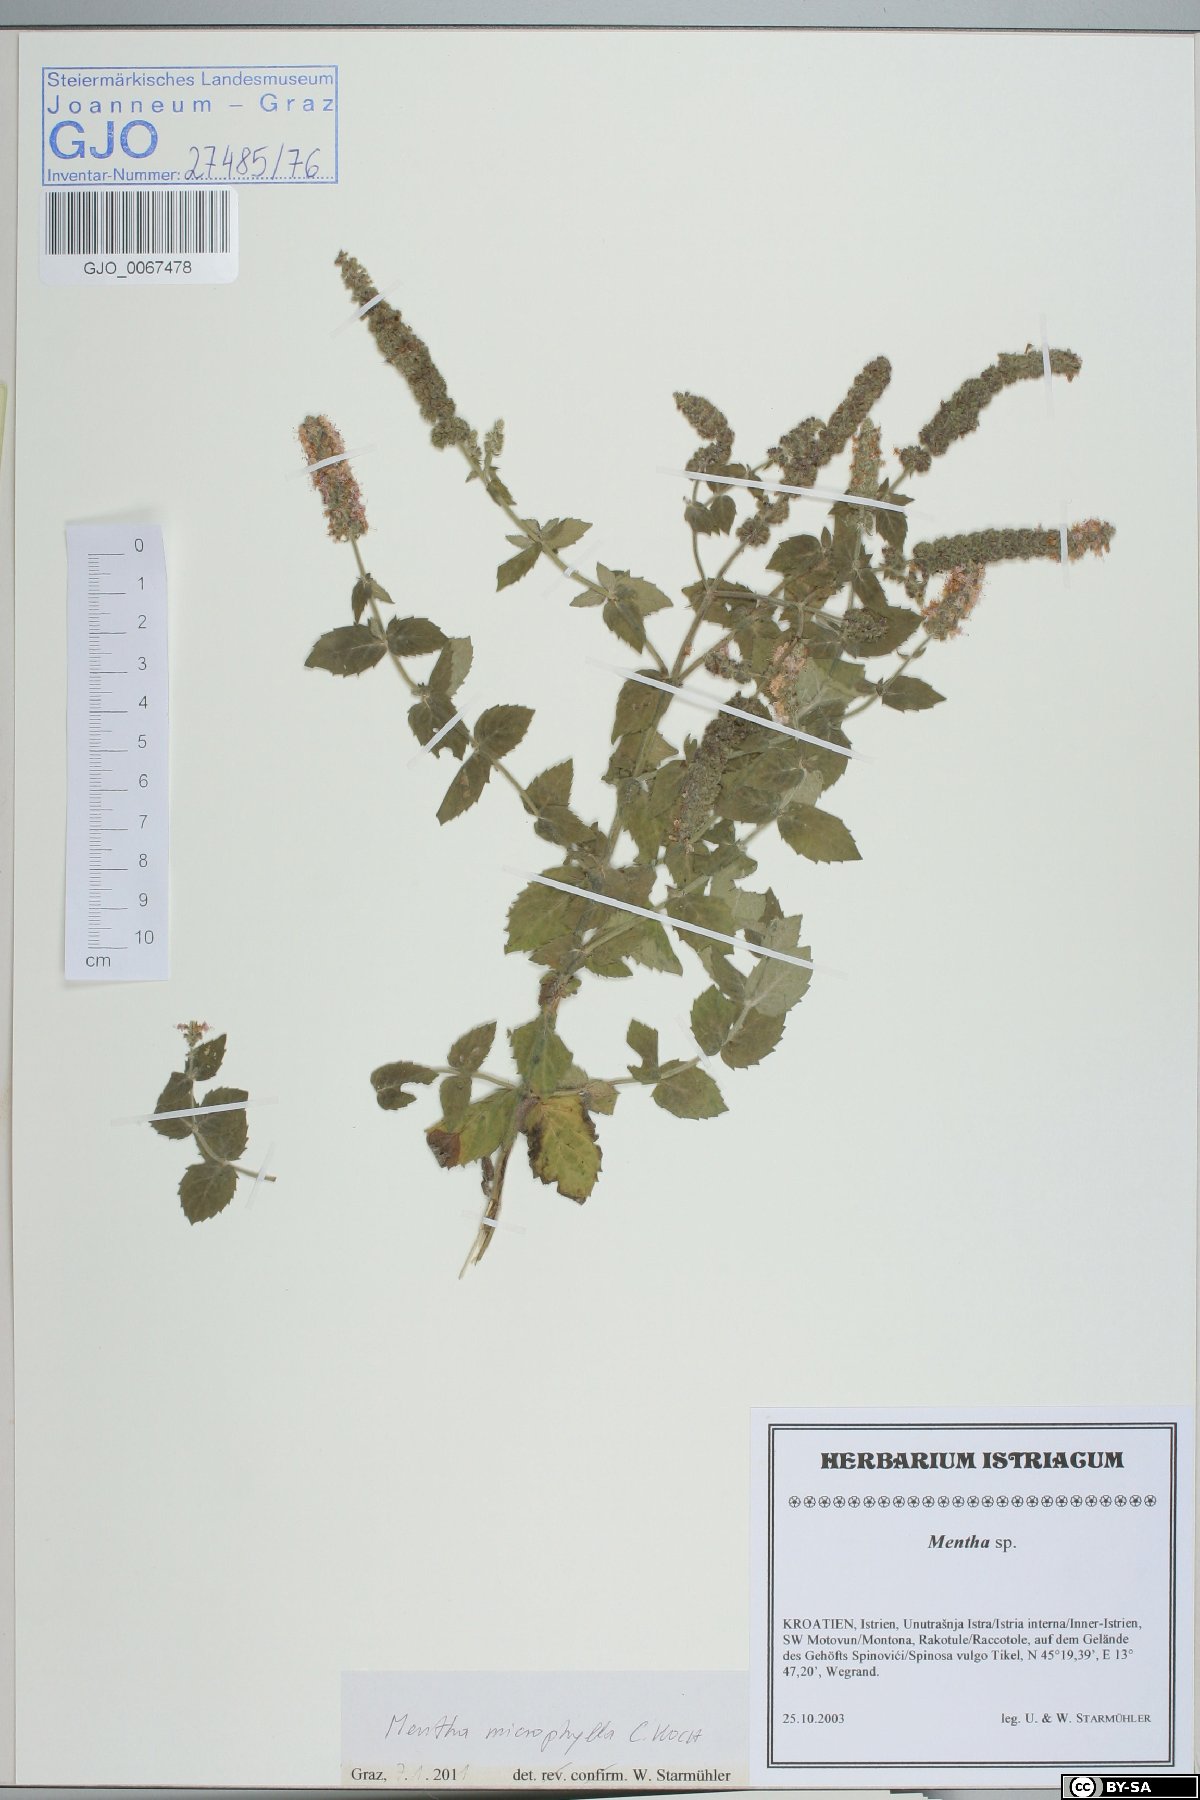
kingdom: Plantae
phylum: Tracheophyta
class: Magnoliopsida
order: Lamiales
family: Lamiaceae
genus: Mentha
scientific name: Mentha spicata
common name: Spearmint
